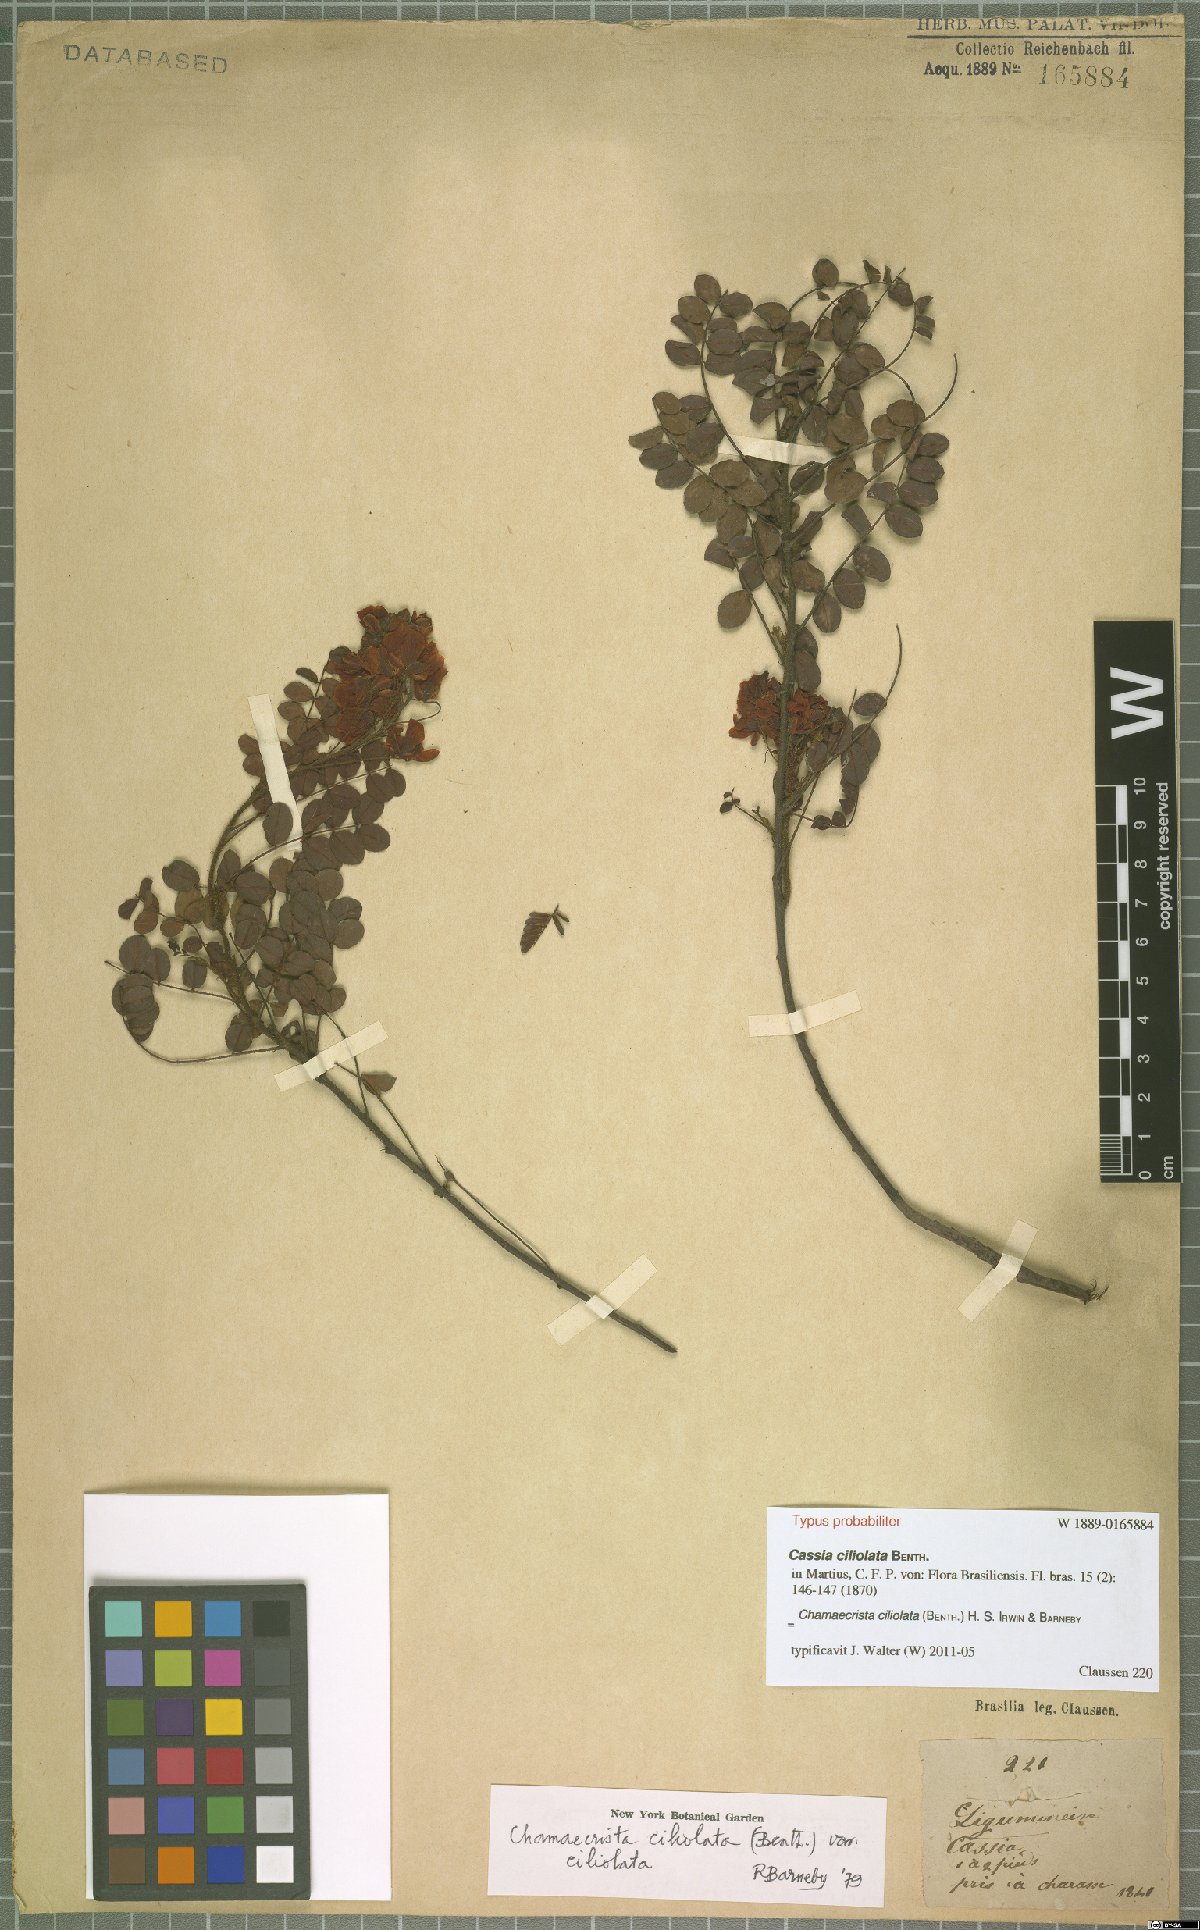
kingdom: Plantae
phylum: Tracheophyta
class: Magnoliopsida
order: Fabales
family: Fabaceae
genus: Chamaecrista
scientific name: Chamaecrista ciliolata
